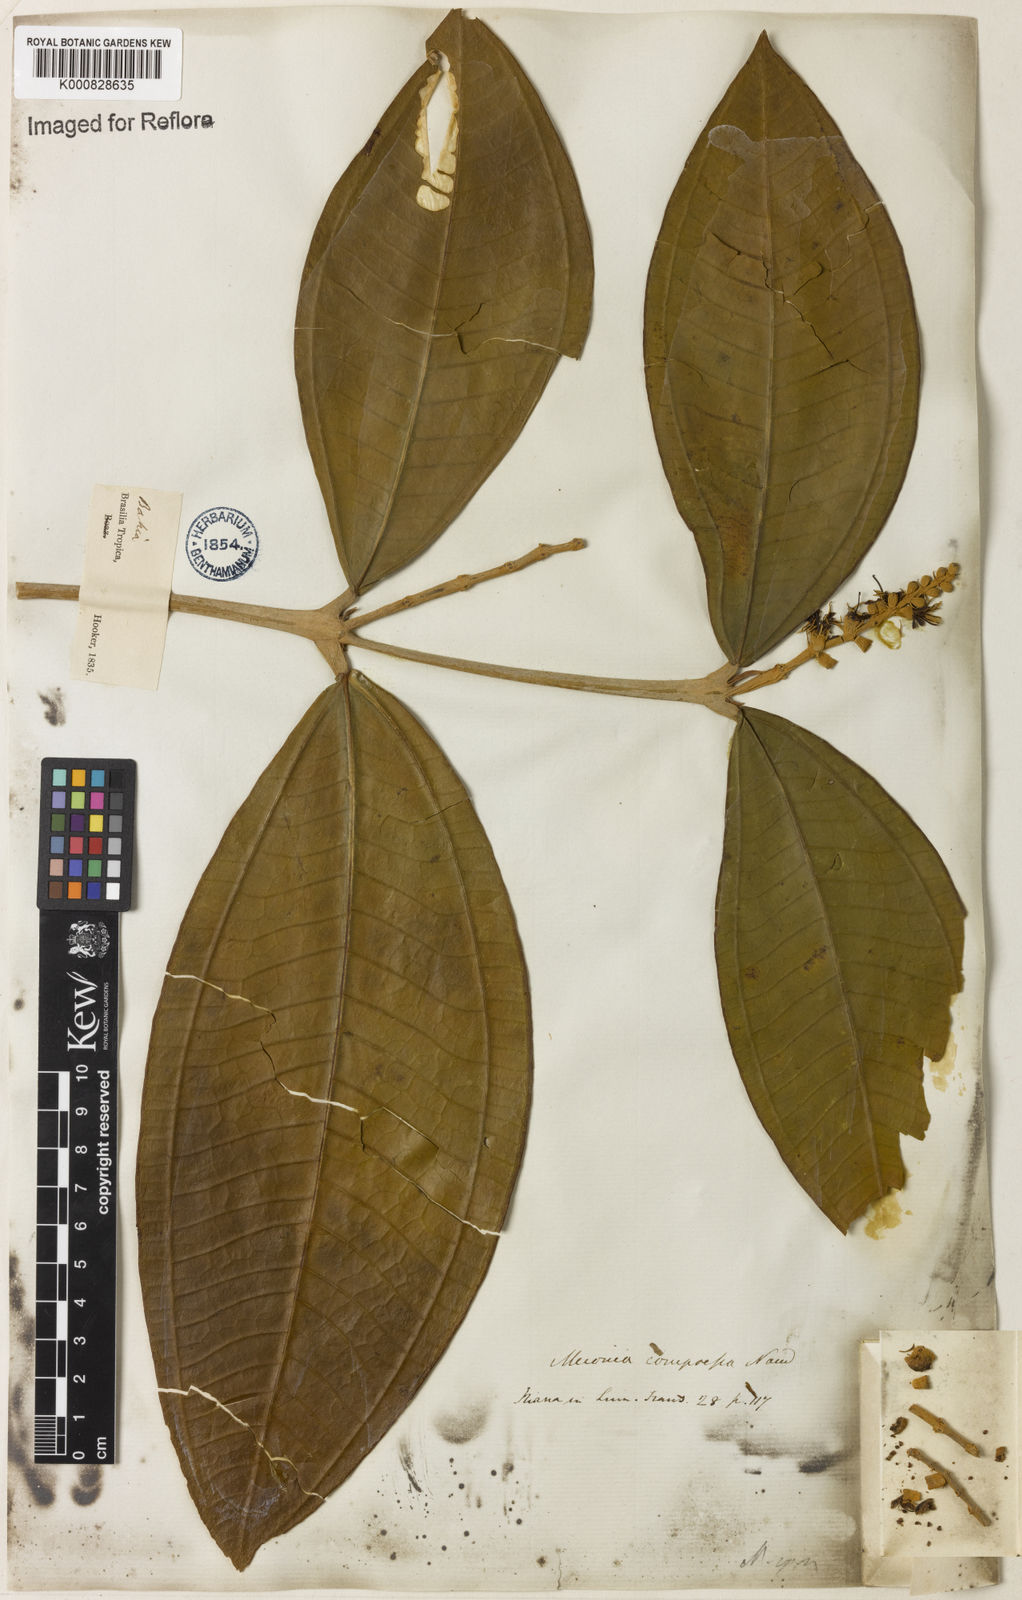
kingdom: Plantae
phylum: Tracheophyta
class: Magnoliopsida
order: Myrtales
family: Melastomataceae
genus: Miconia
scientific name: Miconia compressa
